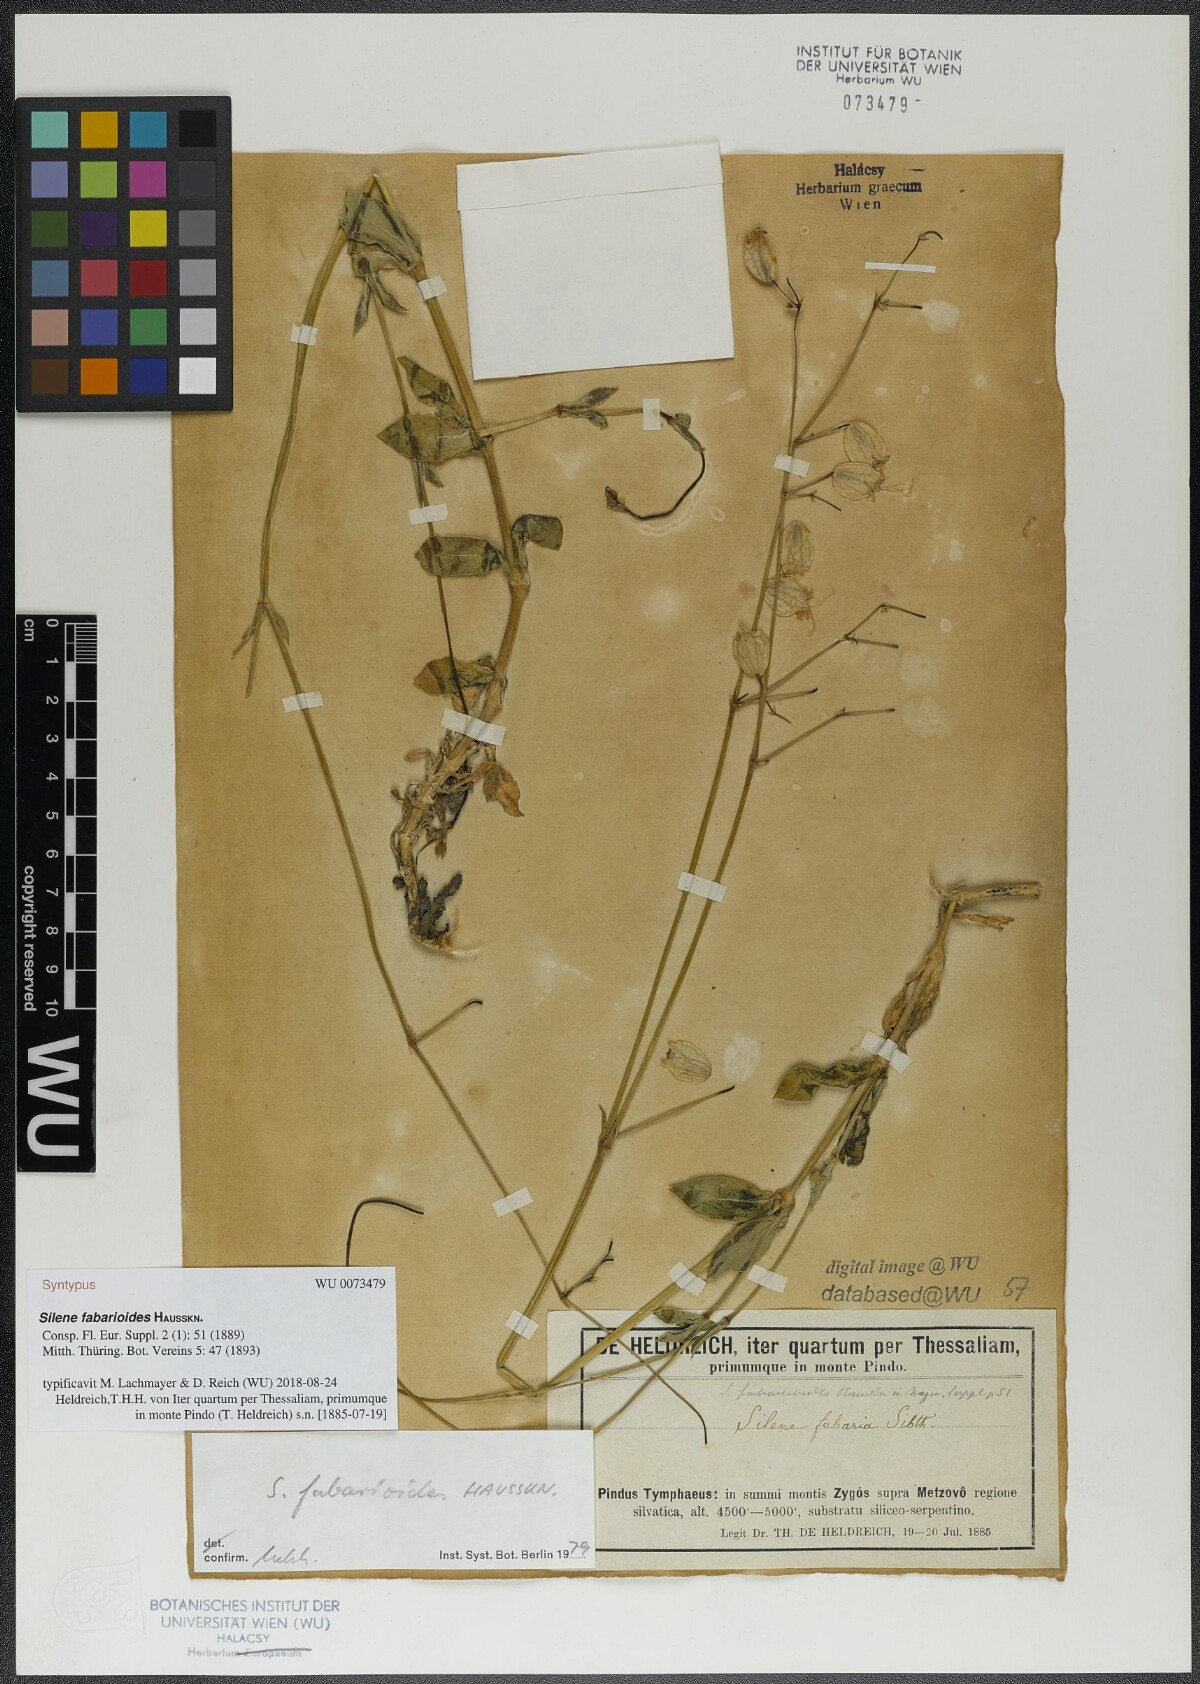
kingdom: Plantae
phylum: Tracheophyta
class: Magnoliopsida
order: Caryophyllales
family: Caryophyllaceae
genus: Silene
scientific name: Silene fabarioides
